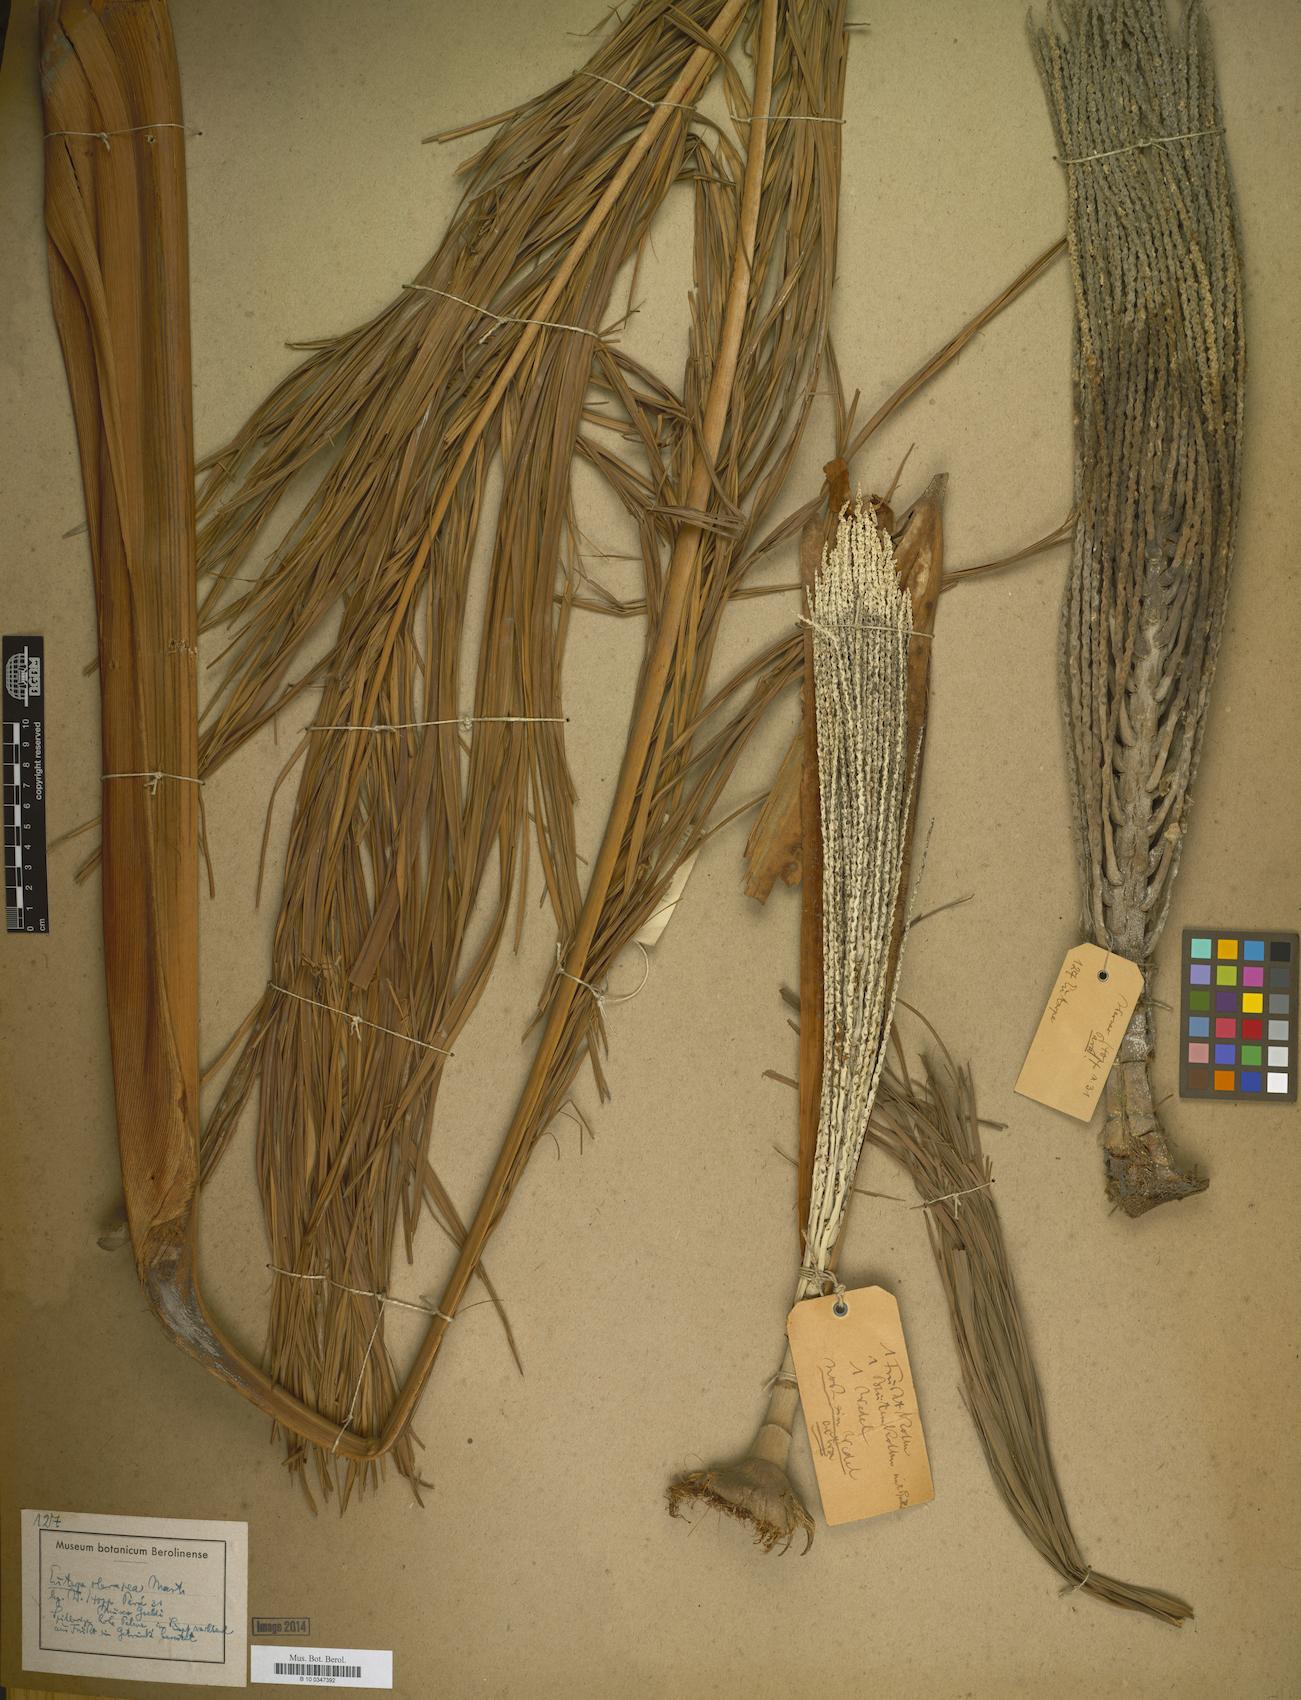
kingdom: Plantae
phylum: Tracheophyta
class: Liliopsida
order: Arecales
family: Arecaceae
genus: Euterpe
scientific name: Euterpe
